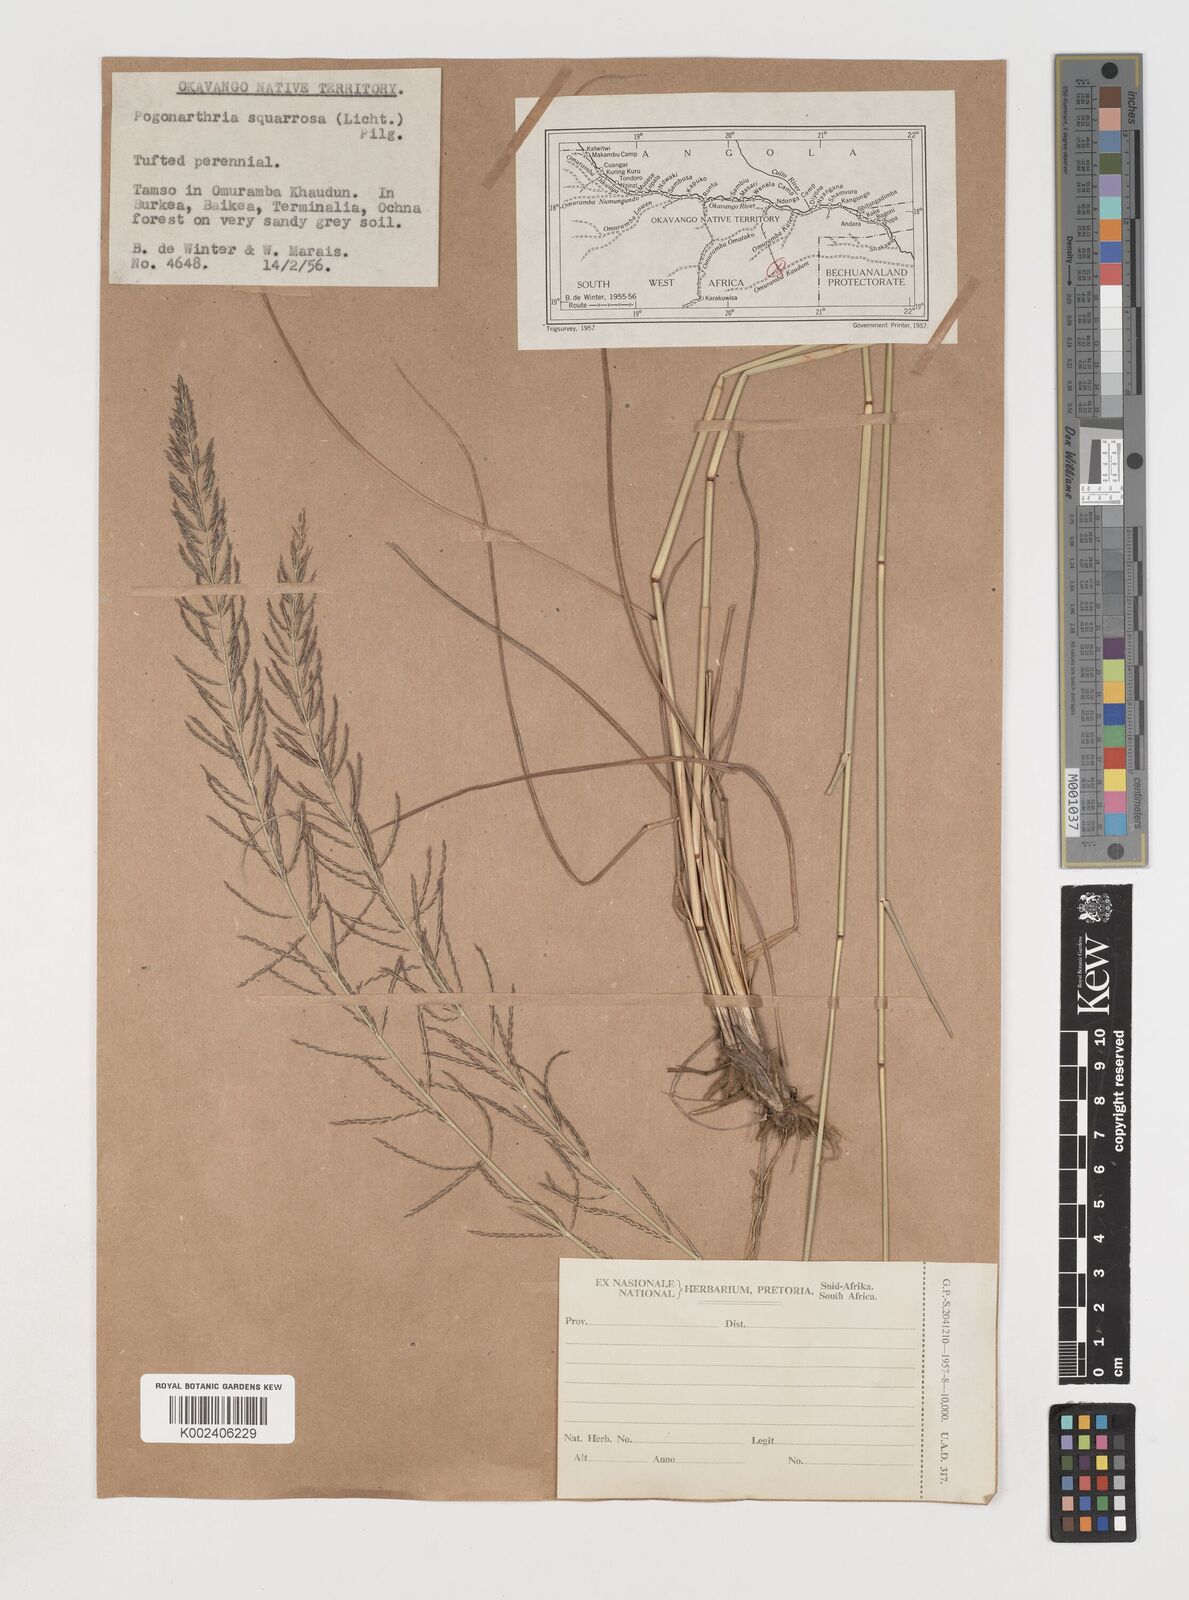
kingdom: Plantae
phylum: Tracheophyta
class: Liliopsida
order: Poales
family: Poaceae
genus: Pogonarthria
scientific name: Pogonarthria squarrosa
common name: Grass
